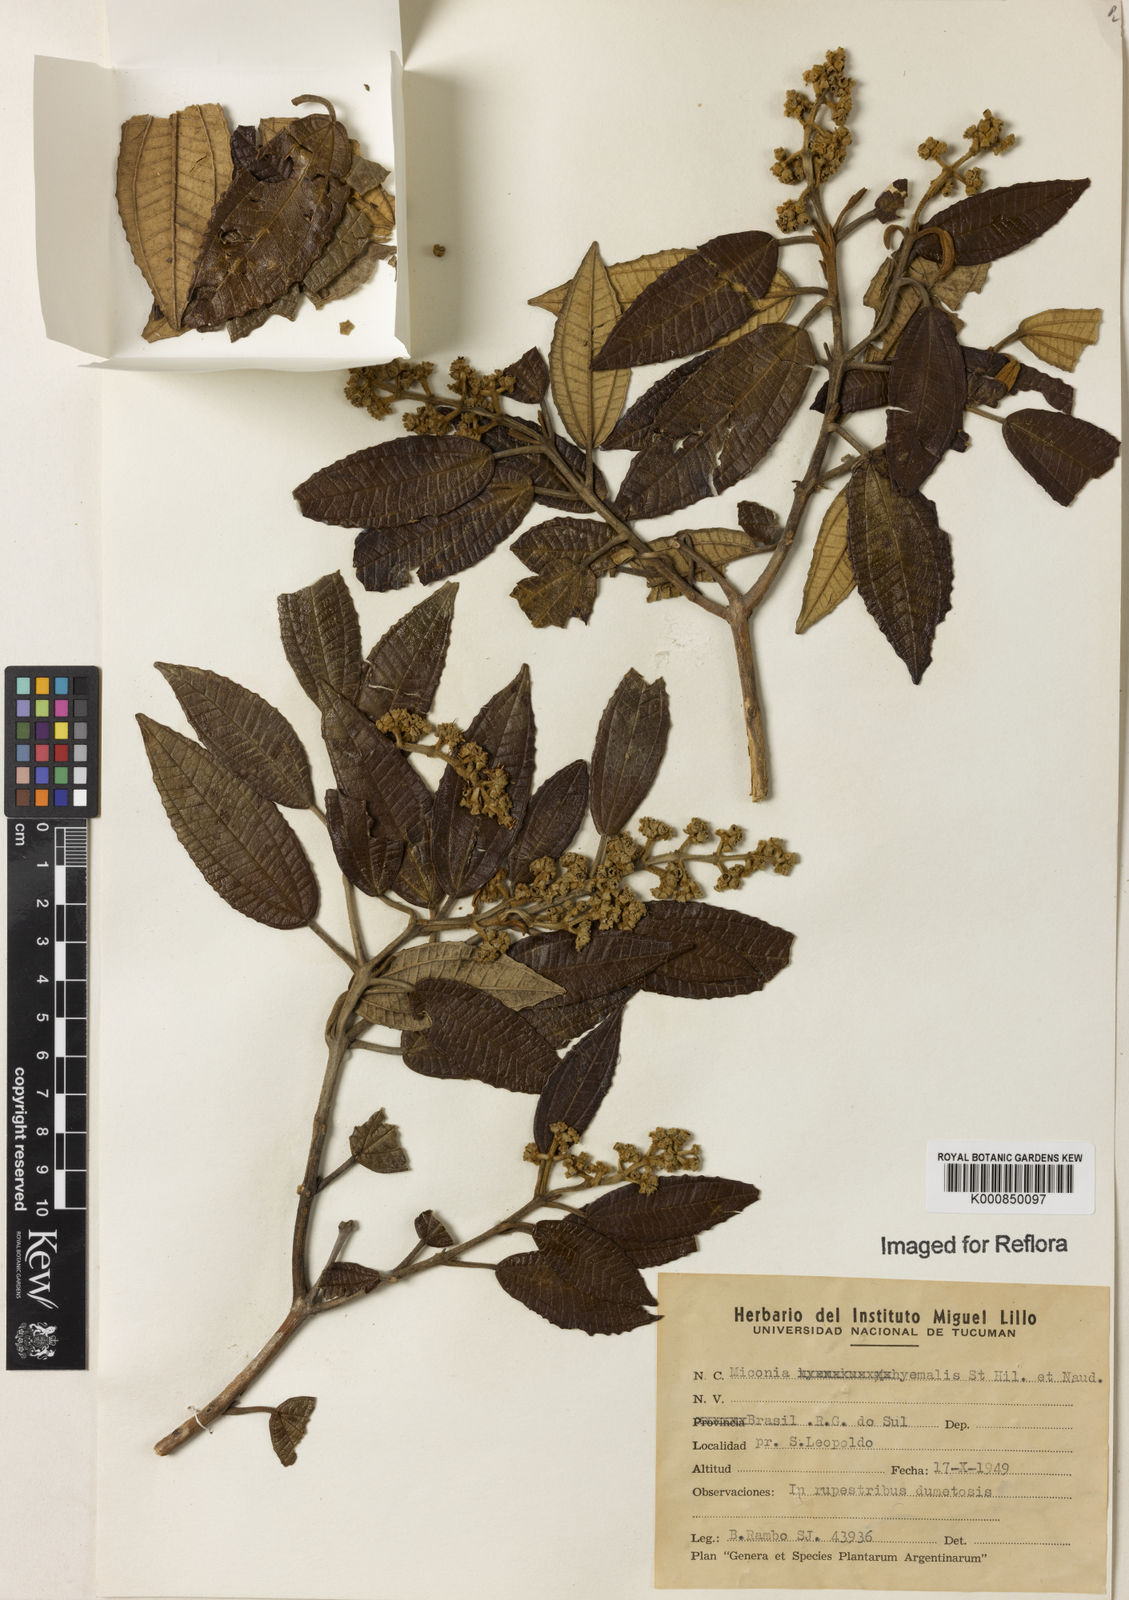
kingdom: Plantae
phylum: Tracheophyta
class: Magnoliopsida
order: Myrtales
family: Melastomataceae
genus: Miconia
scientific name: Miconia hyemalis
